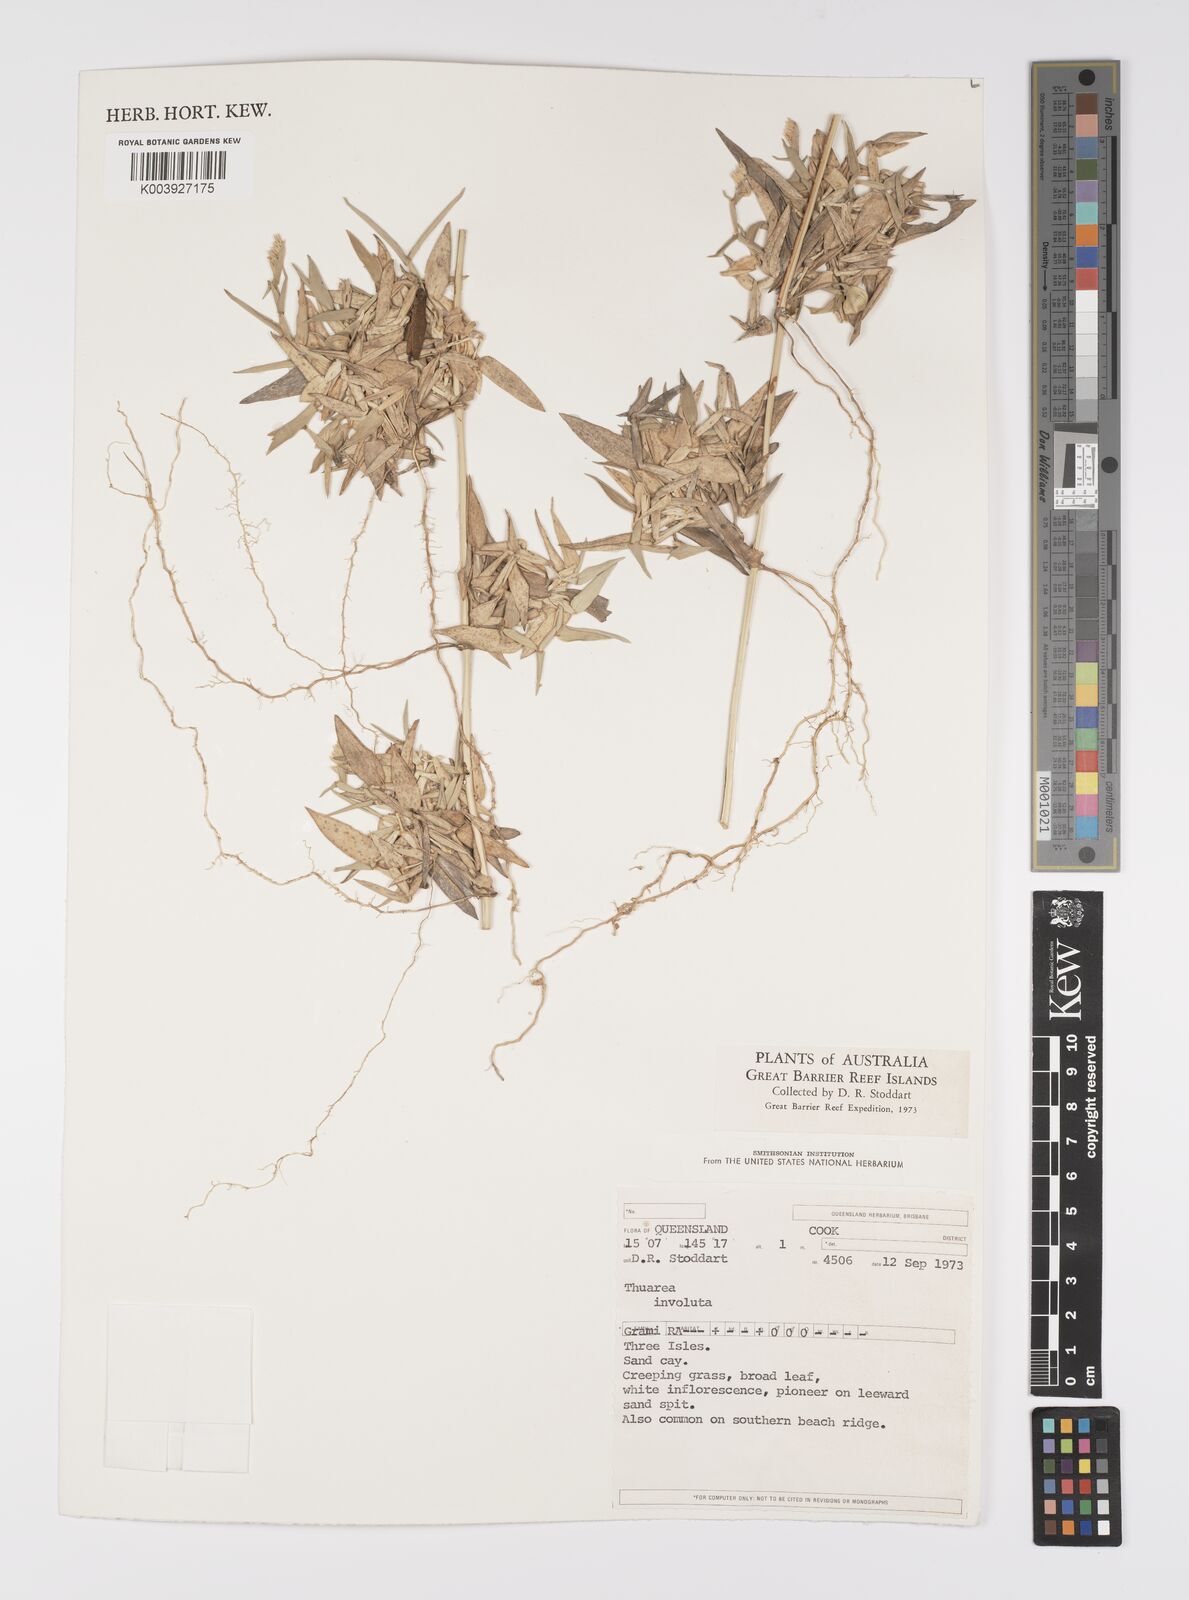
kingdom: Plantae
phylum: Tracheophyta
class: Liliopsida
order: Poales
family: Poaceae
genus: Thuarea
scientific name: Thuarea involuta
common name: Tropical beach grass
